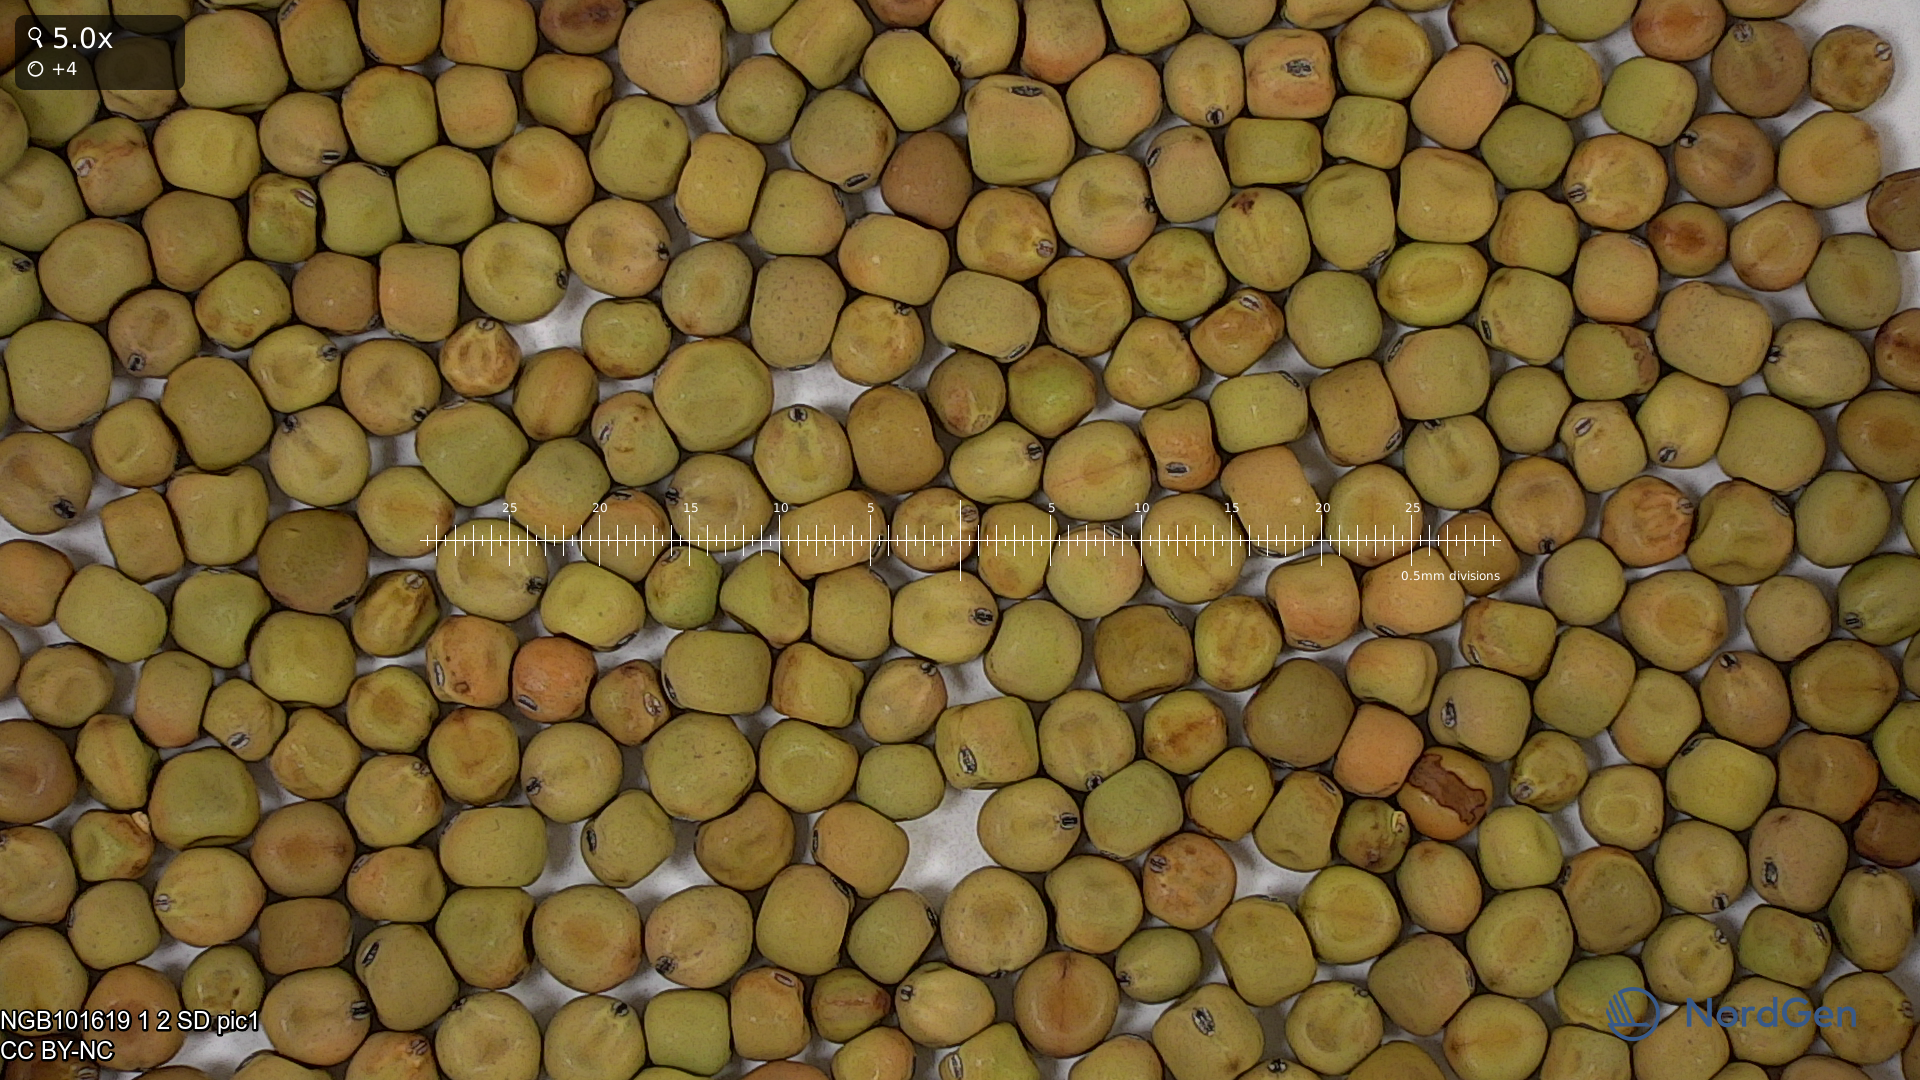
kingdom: Plantae
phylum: Tracheophyta
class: Magnoliopsida
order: Fabales
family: Fabaceae
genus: Lathyrus
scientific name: Lathyrus oleraceus
